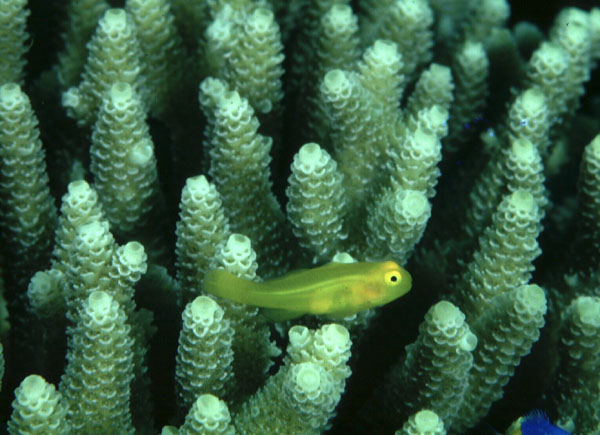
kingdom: Animalia
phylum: Chordata
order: Perciformes
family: Gobiidae
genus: Gobiodon
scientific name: Gobiodon okinawae
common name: Okinawa goby
